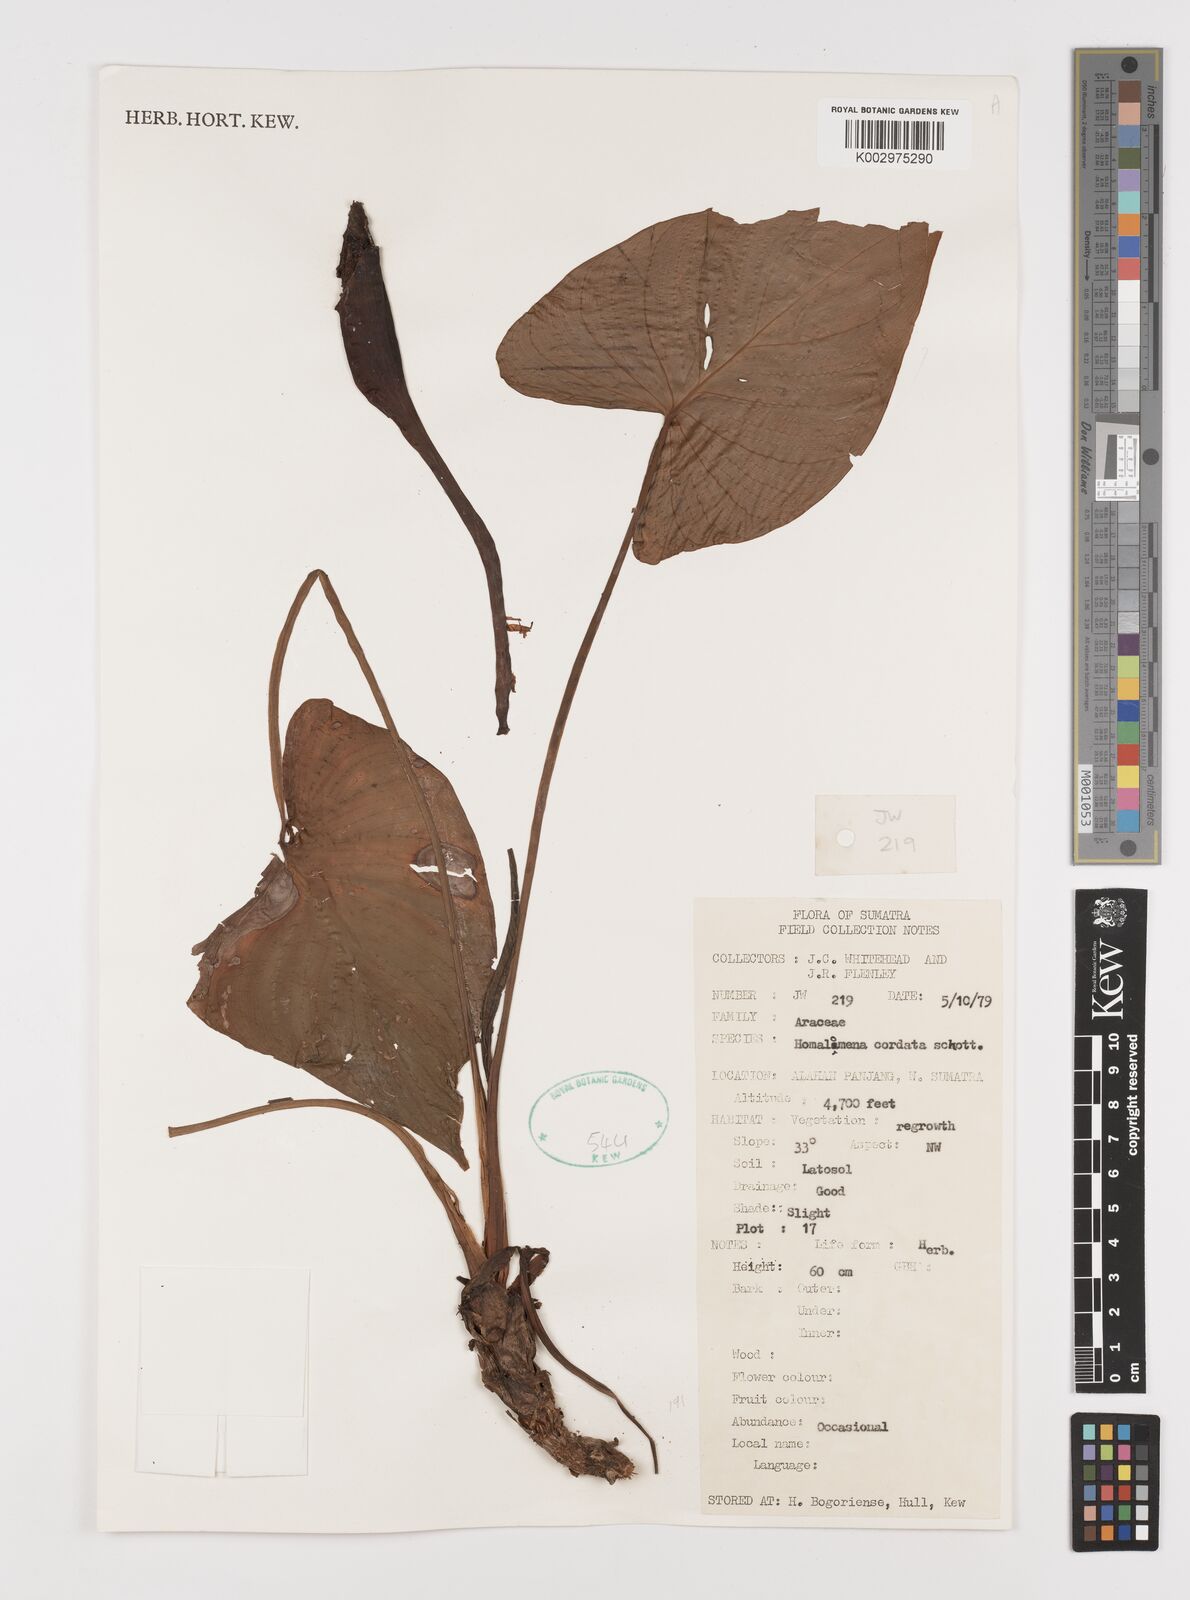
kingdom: Plantae
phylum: Tracheophyta
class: Liliopsida
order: Alismatales
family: Araceae
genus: Homalomena
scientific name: Homalomena cordata
